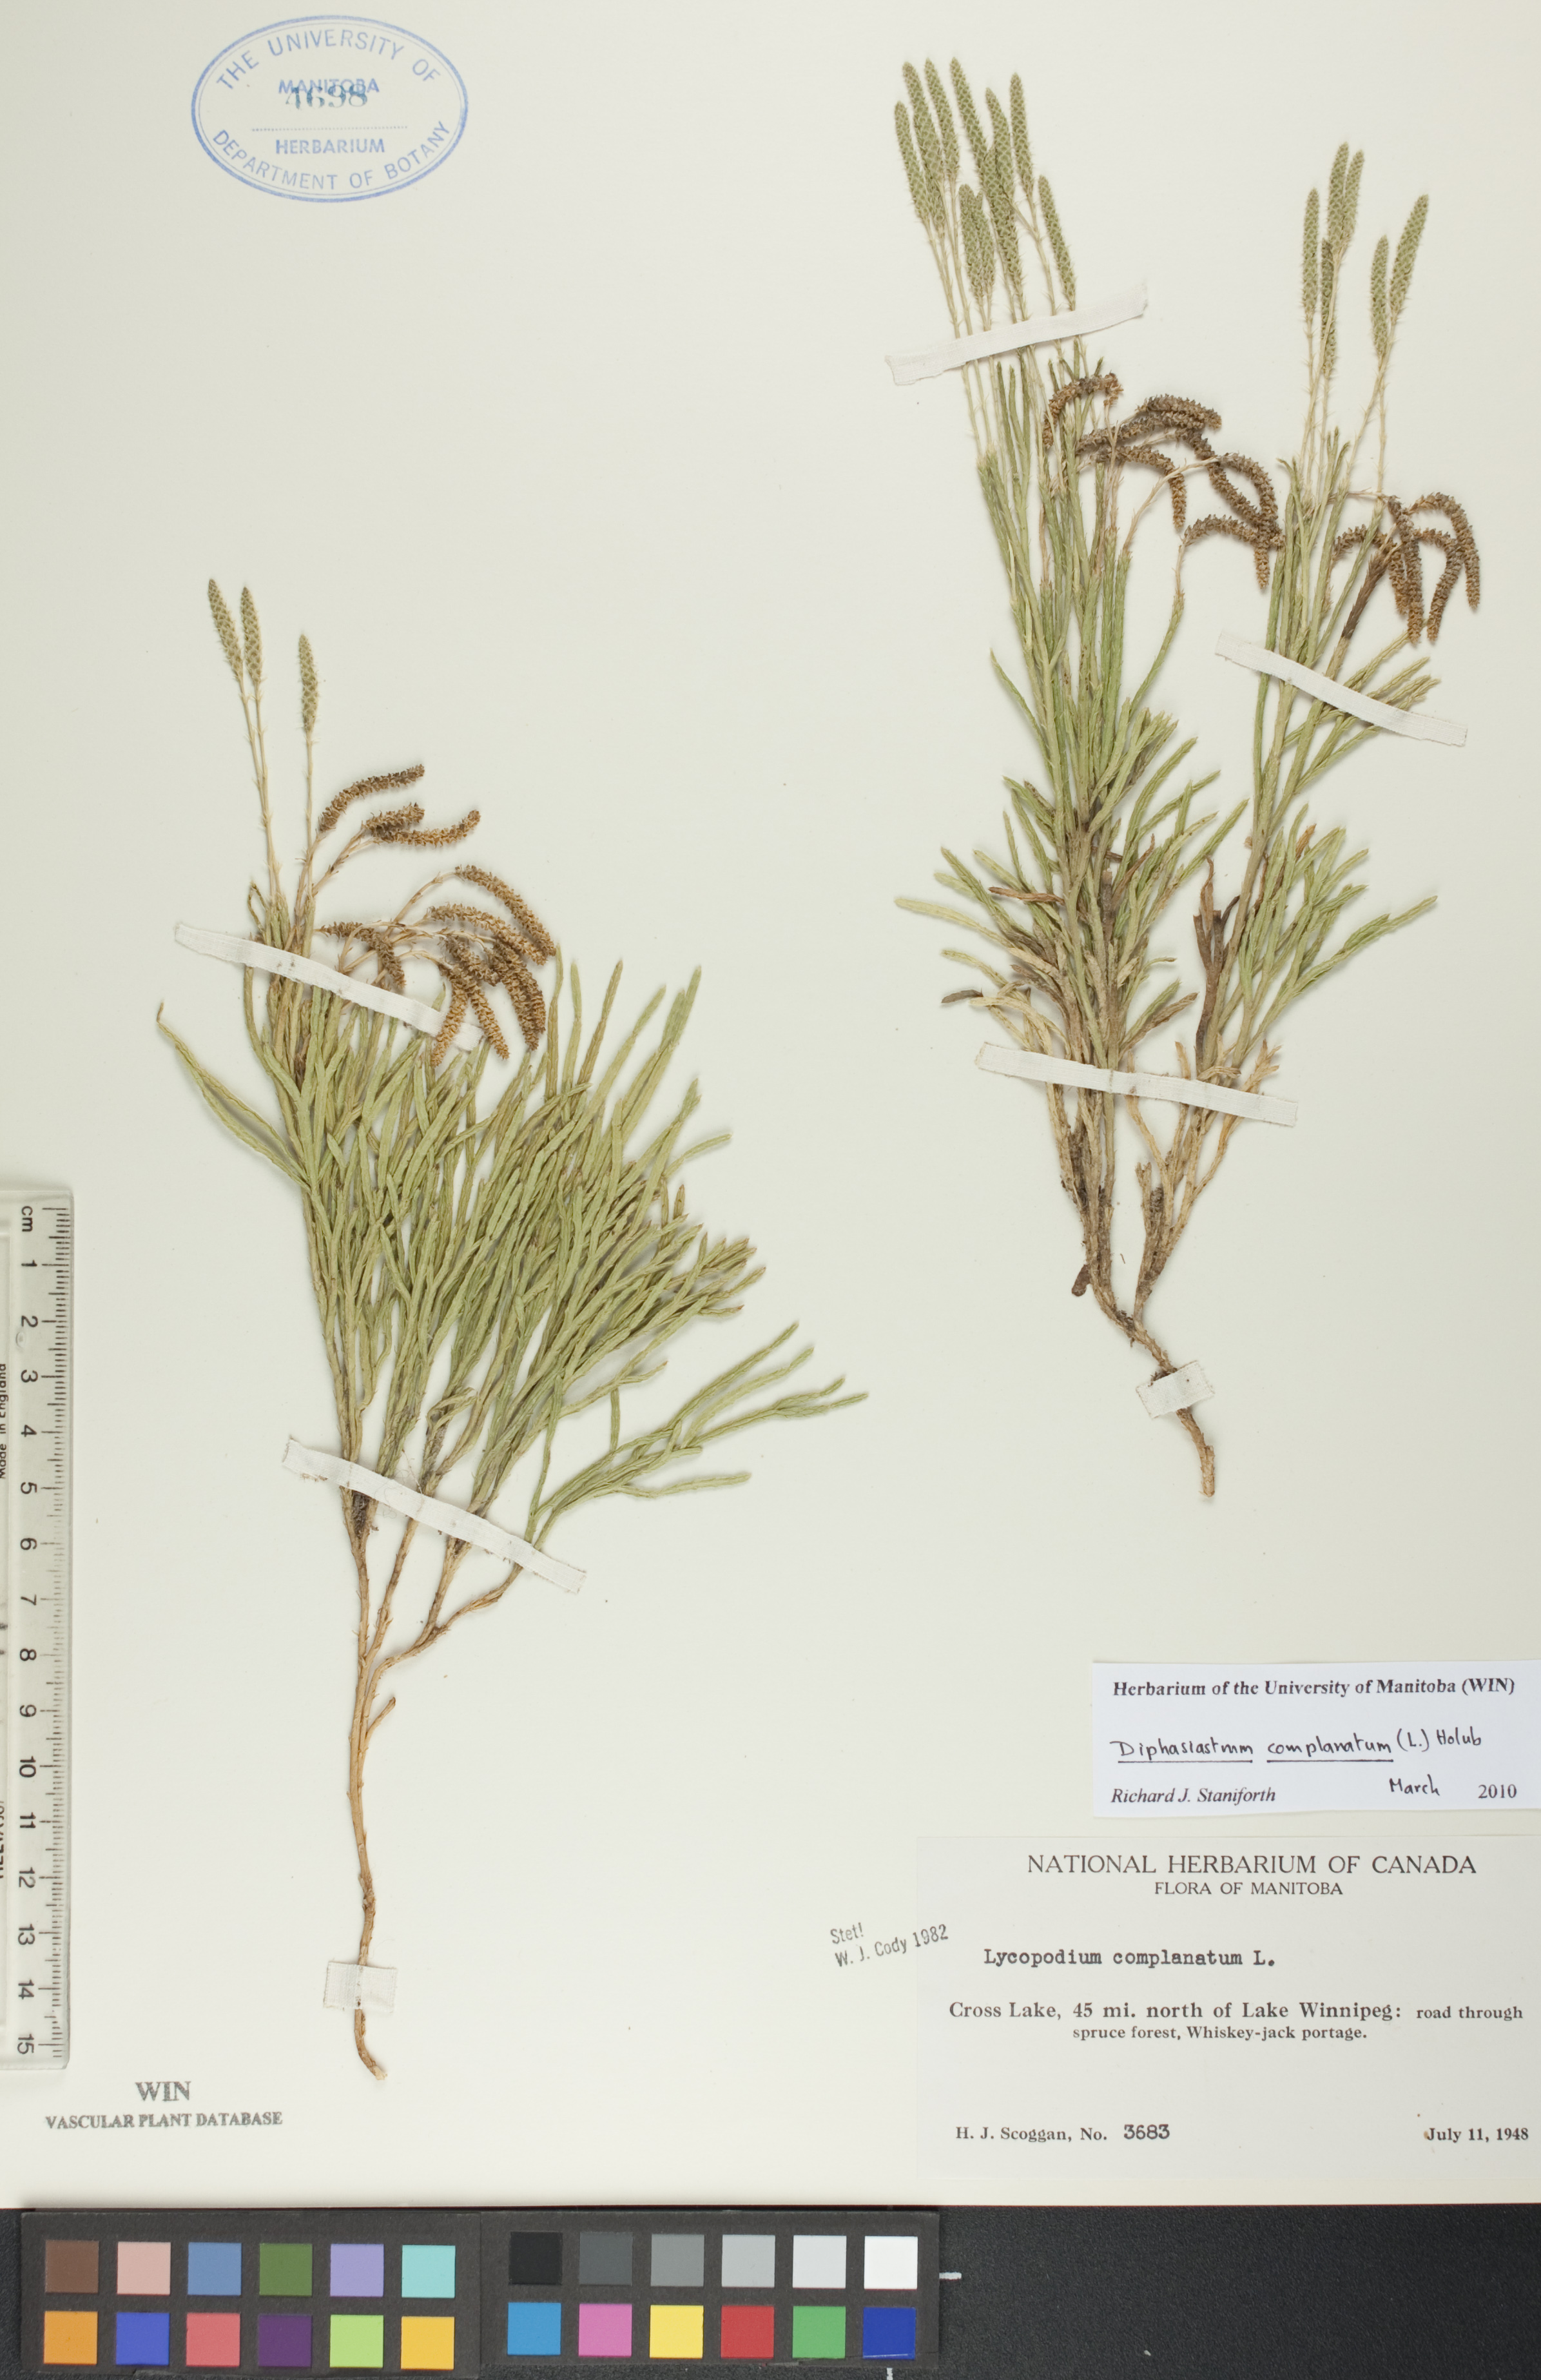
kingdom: Plantae
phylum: Tracheophyta
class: Lycopodiopsida
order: Lycopodiales
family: Lycopodiaceae
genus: Diphasiastrum
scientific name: Diphasiastrum complanatum
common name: Northern running-pine
